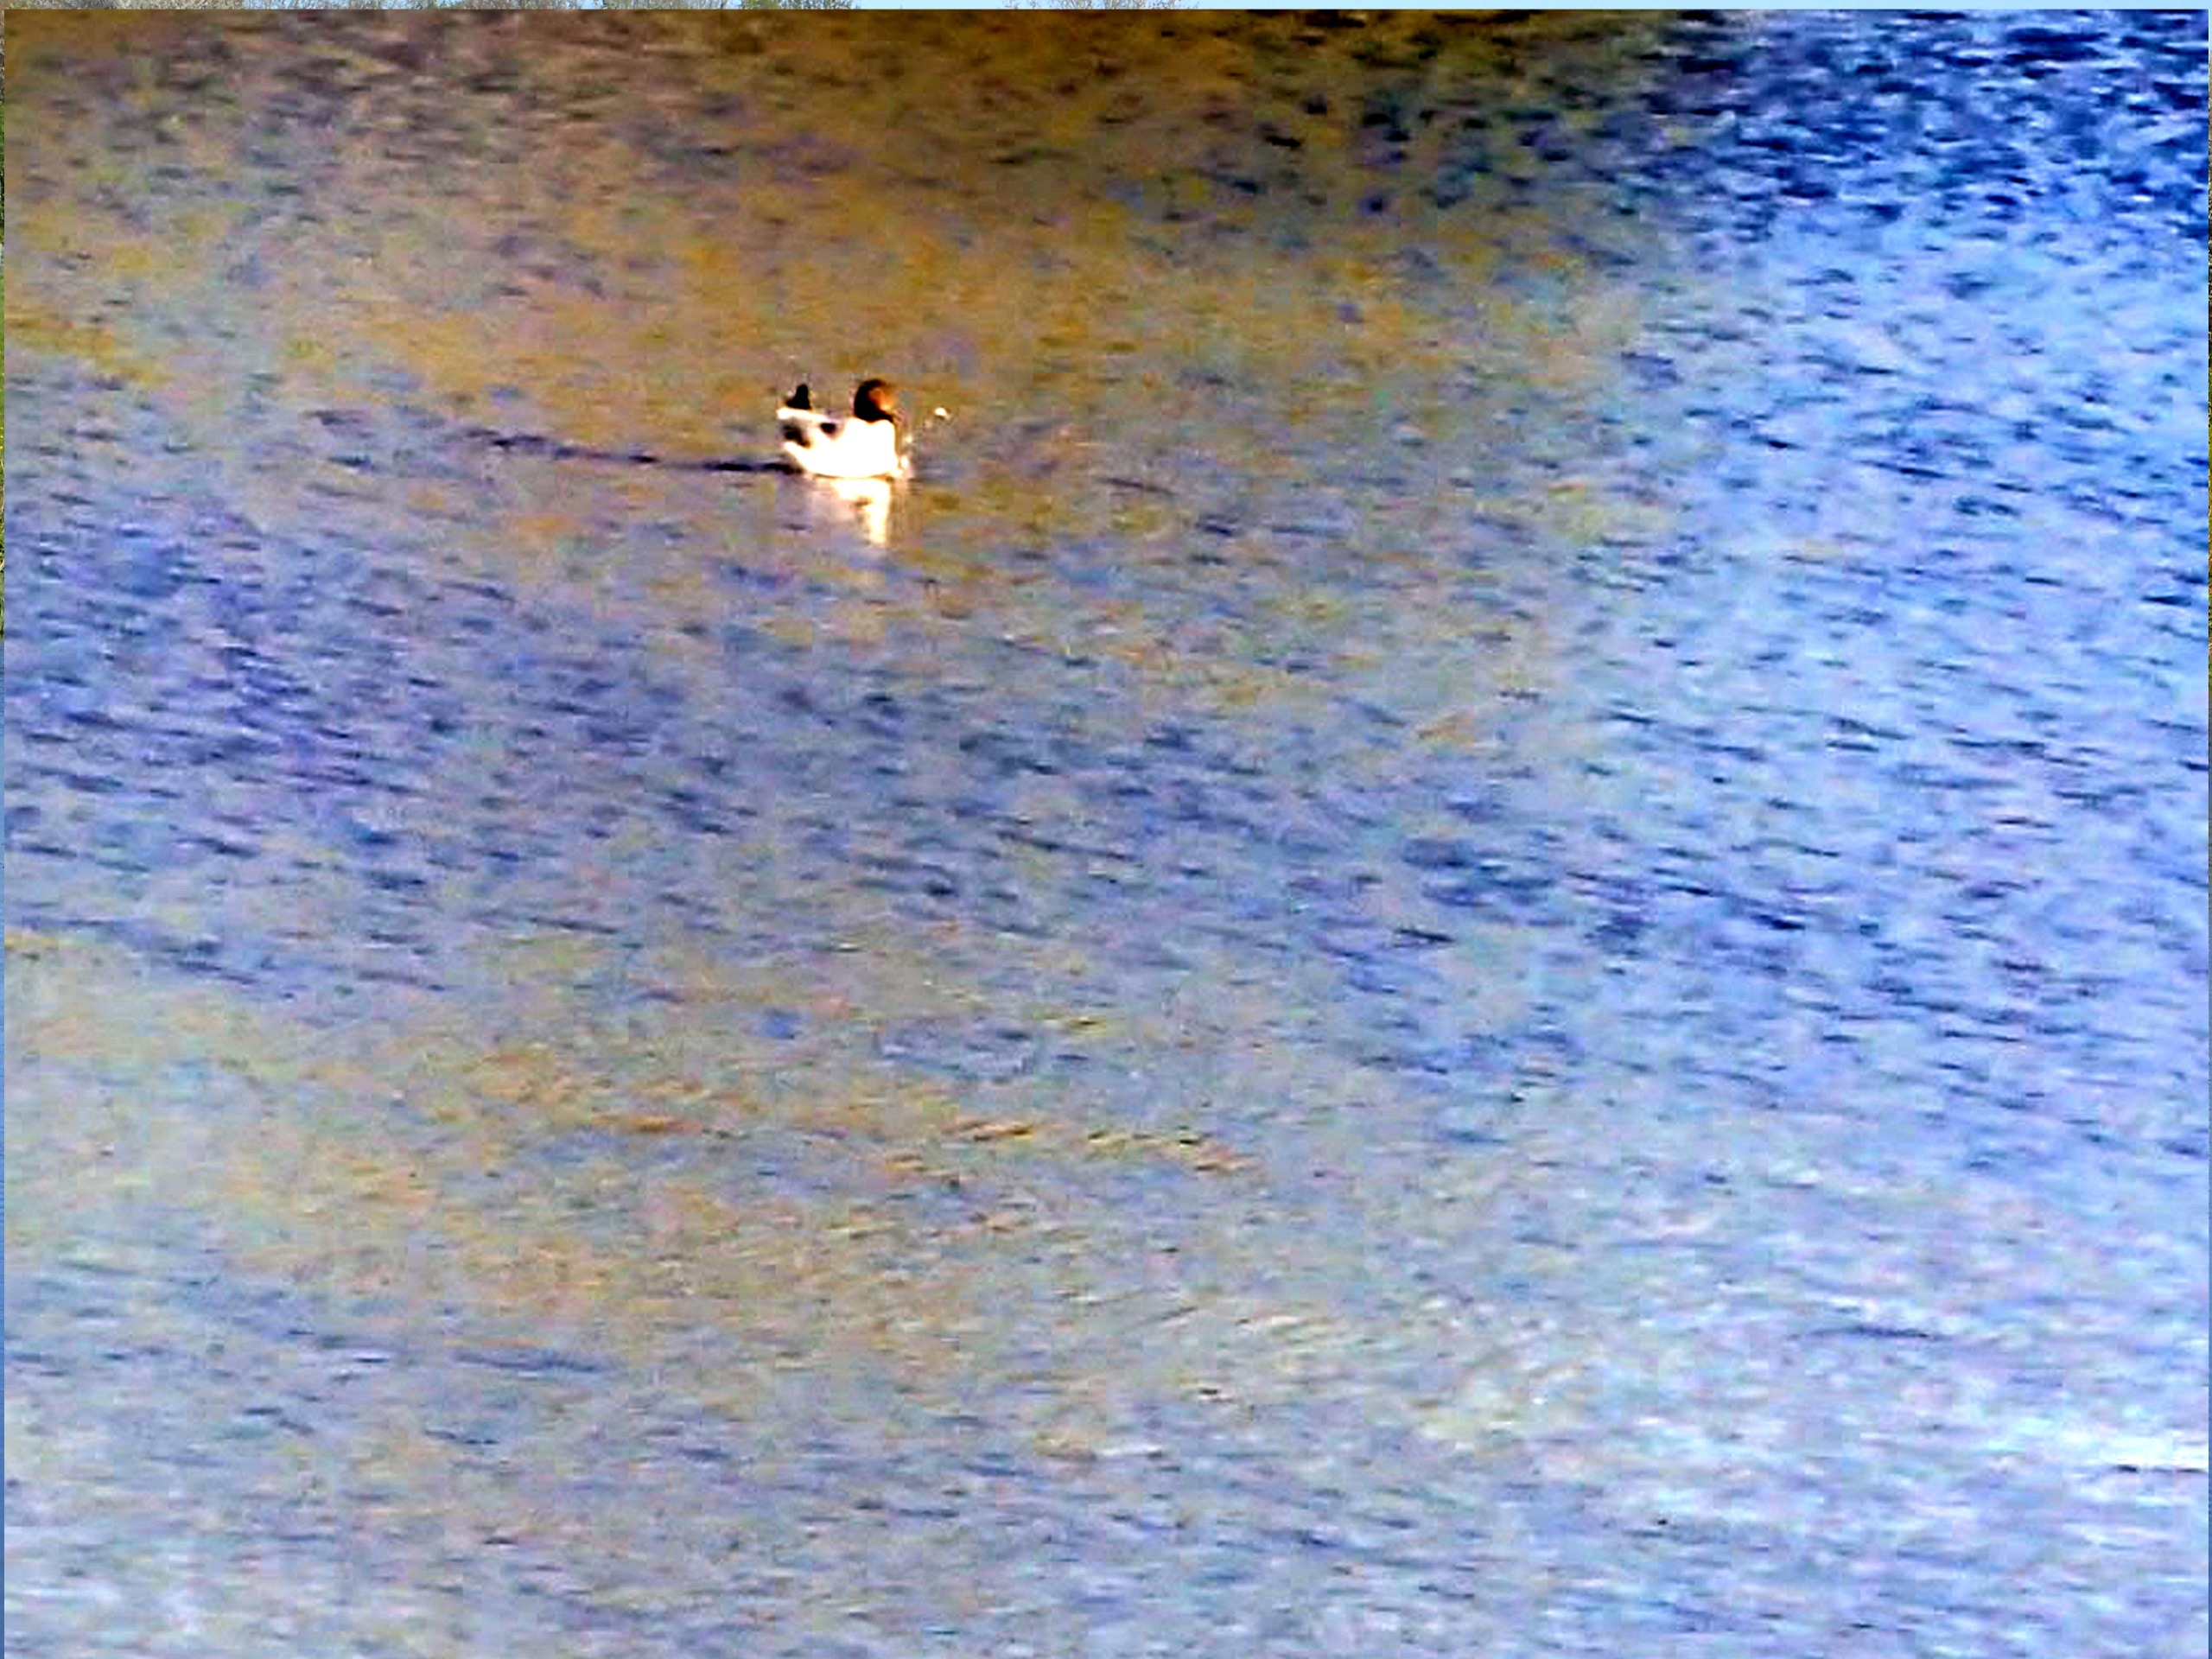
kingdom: Animalia
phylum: Chordata
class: Aves
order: Charadriiformes
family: Laridae
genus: Chroicocephalus
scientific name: Chroicocephalus ridibundus
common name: Hættemåge
